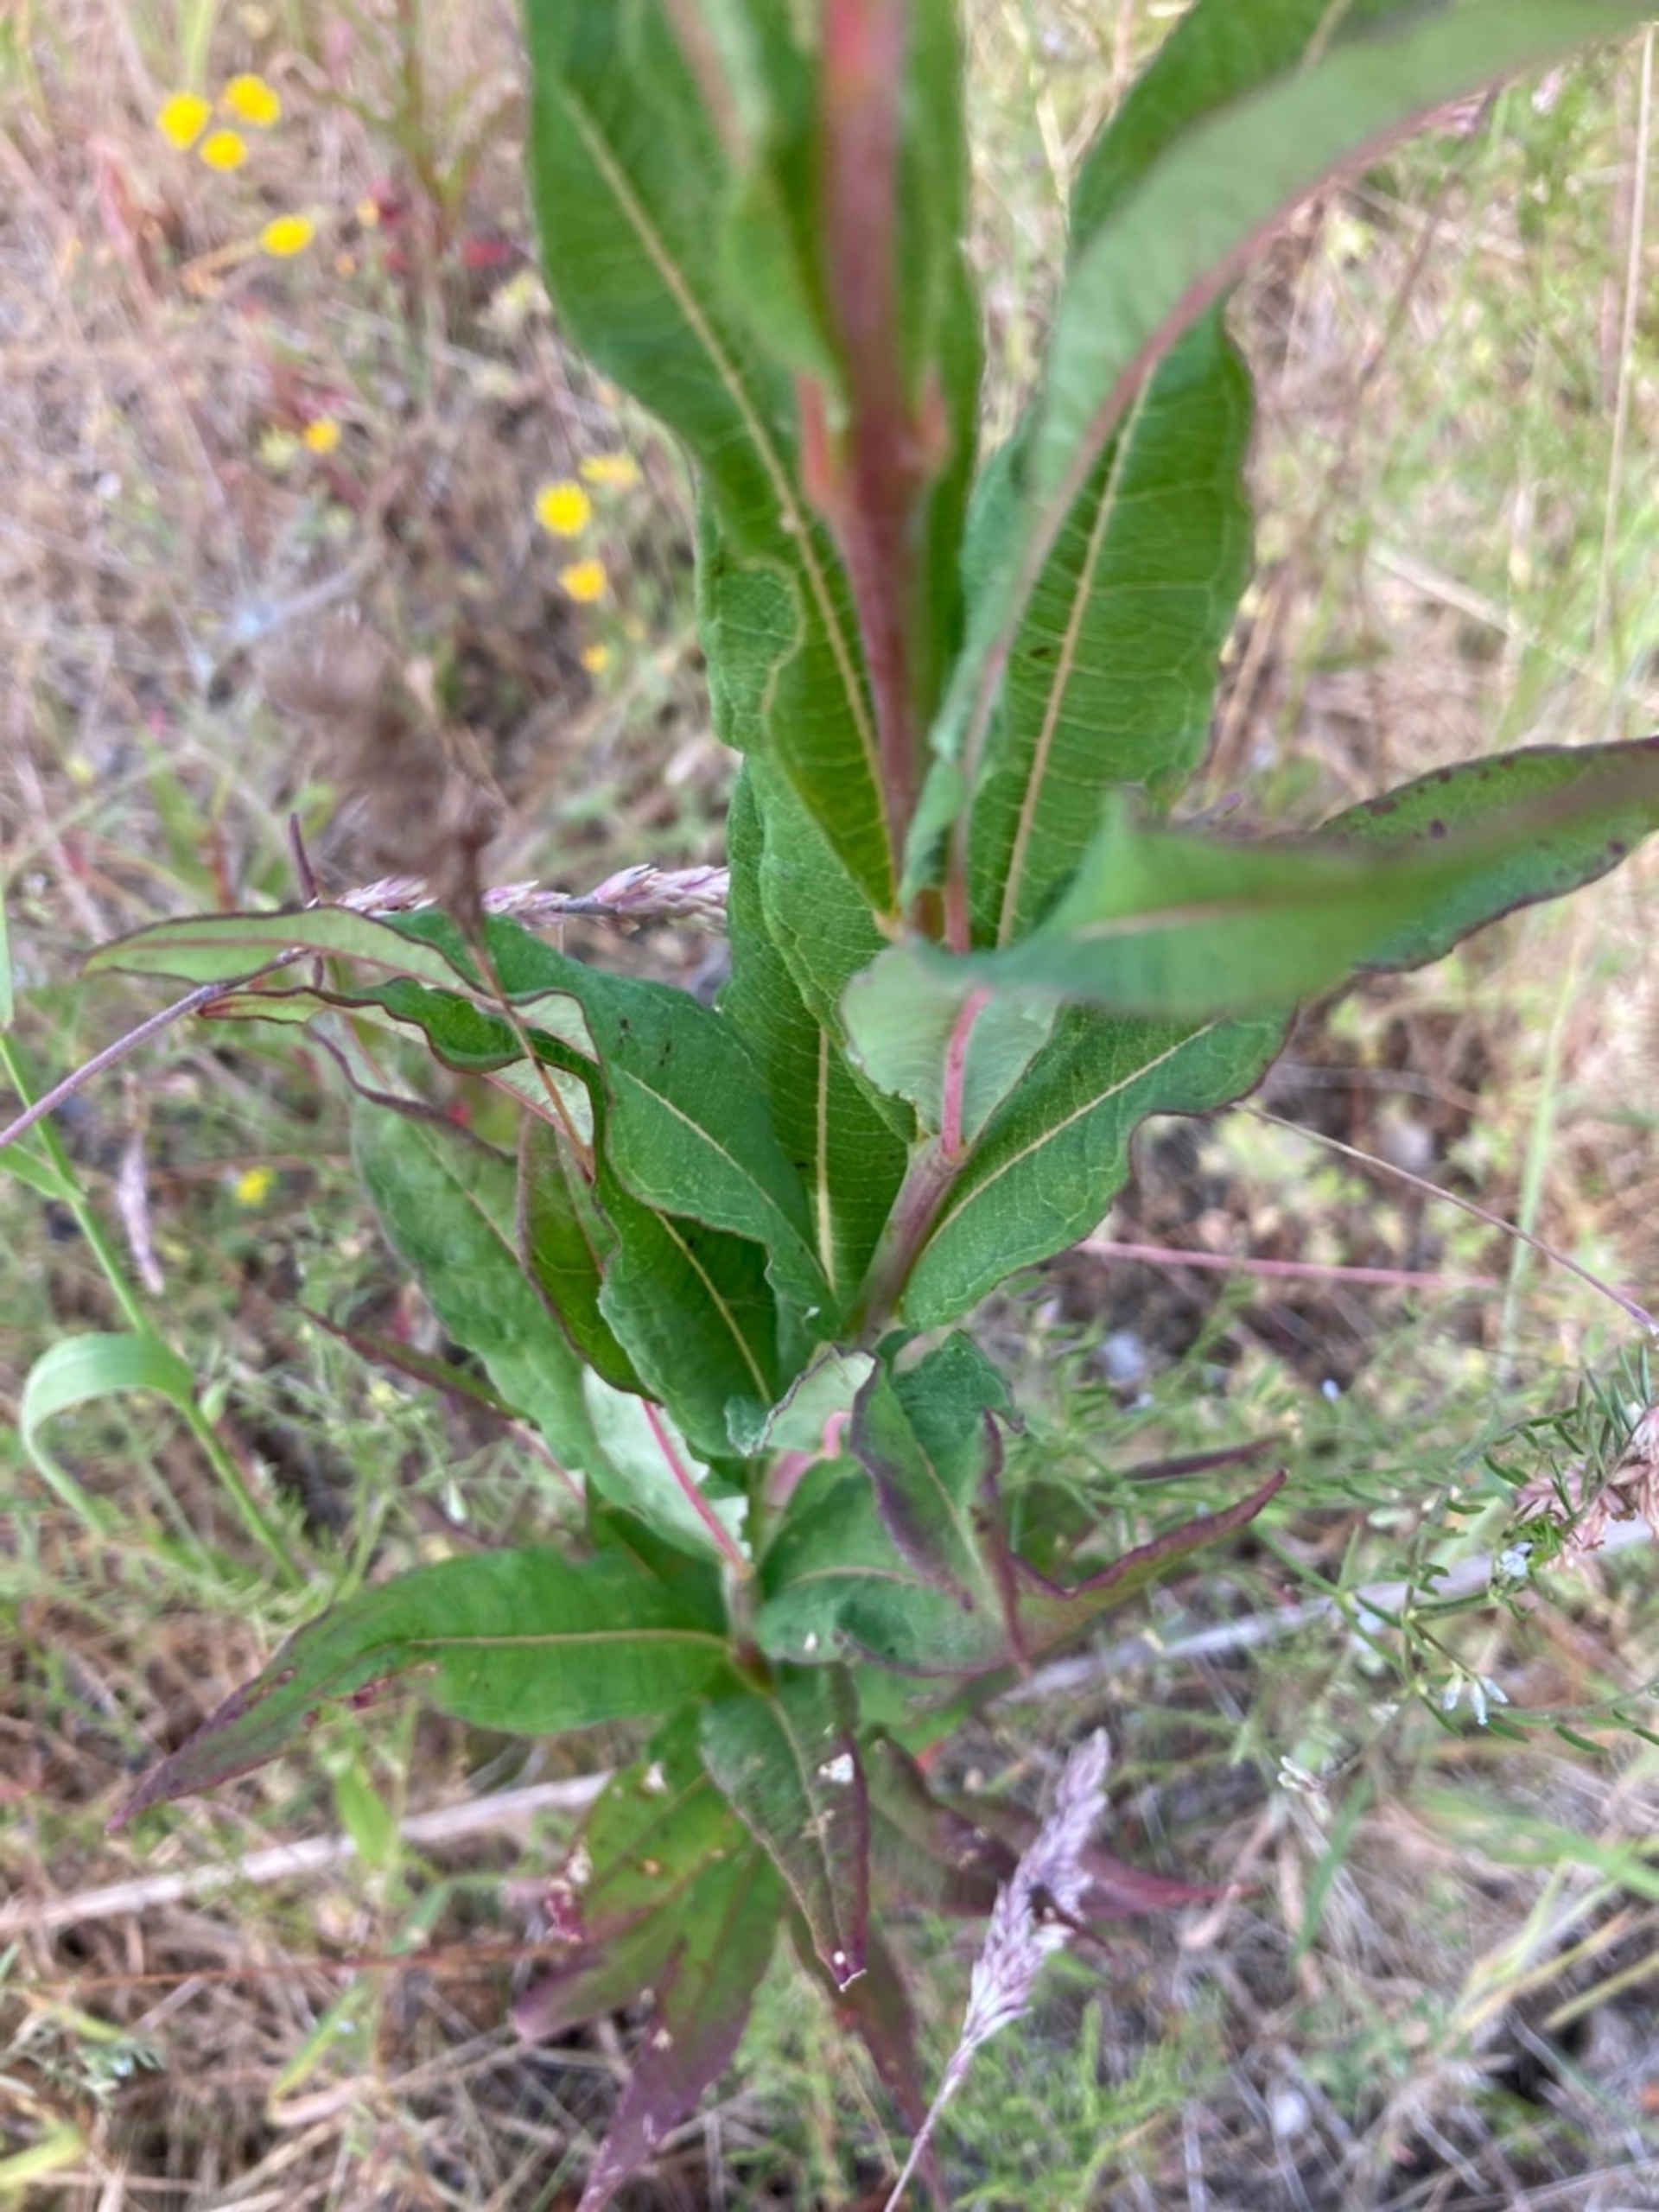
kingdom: Plantae
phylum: Tracheophyta
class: Magnoliopsida
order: Myrtales
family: Onagraceae
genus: Chamaenerion
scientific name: Chamaenerion angustifolium
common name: Gederams
